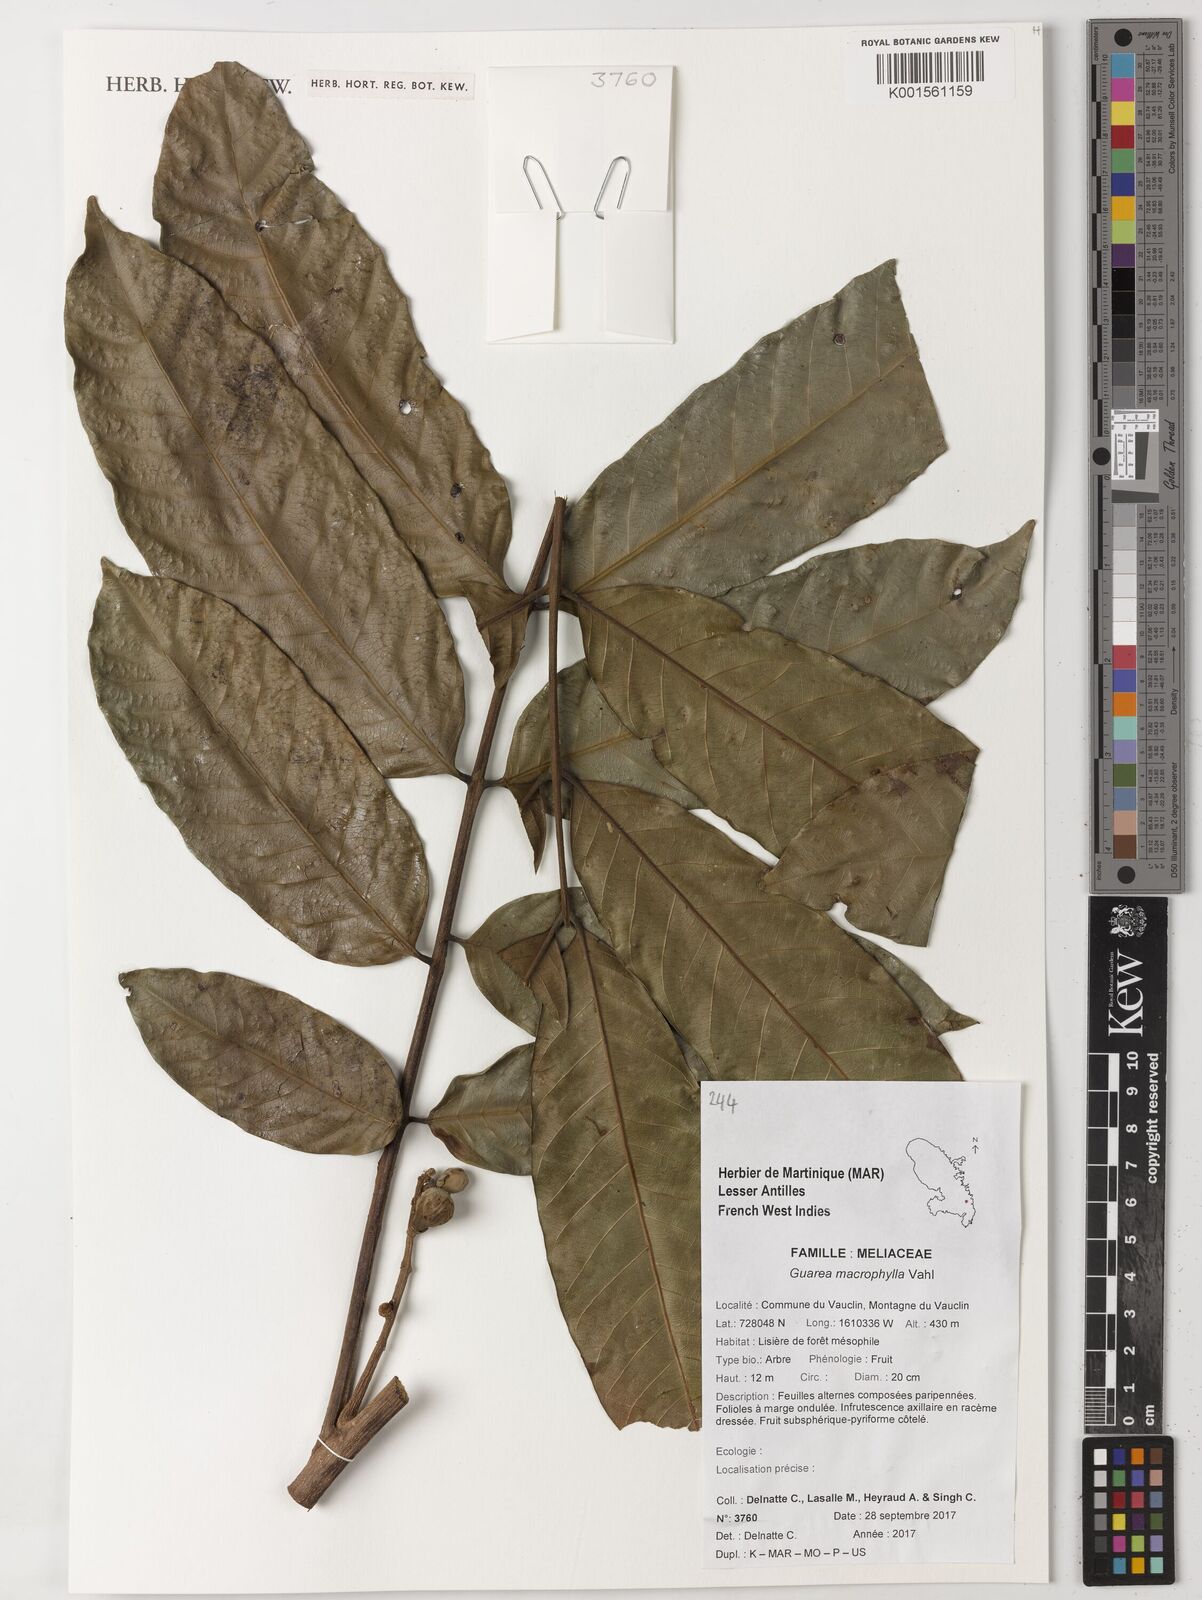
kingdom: Plantae
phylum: Tracheophyta
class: Magnoliopsida
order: Sapindales
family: Meliaceae
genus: Guarea
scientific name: Guarea macrophylla
